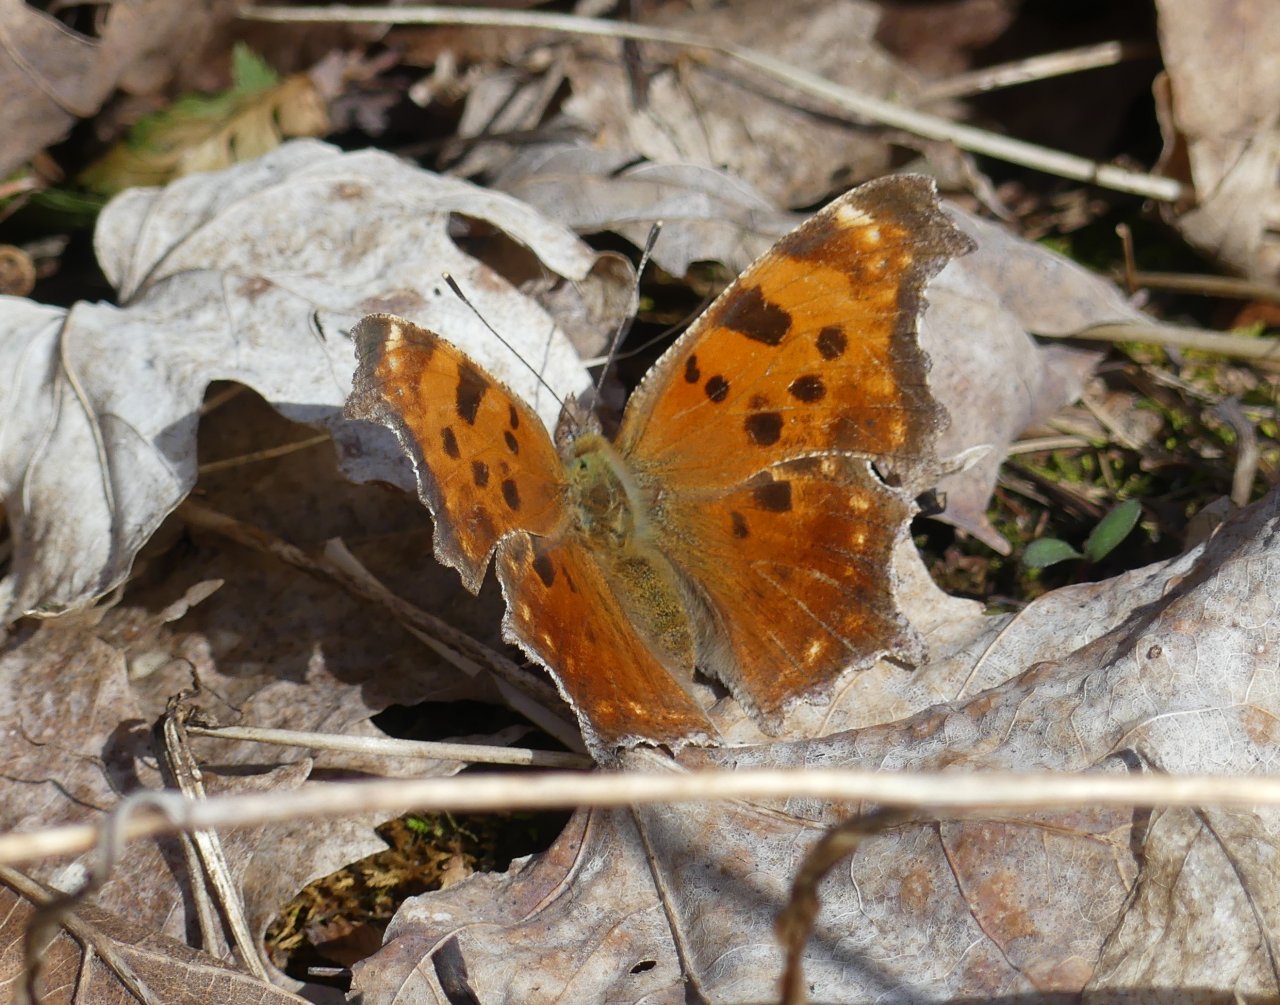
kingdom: Animalia
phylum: Arthropoda
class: Insecta
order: Lepidoptera
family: Nymphalidae
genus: Polygonia
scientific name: Polygonia comma
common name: Eastern Comma
